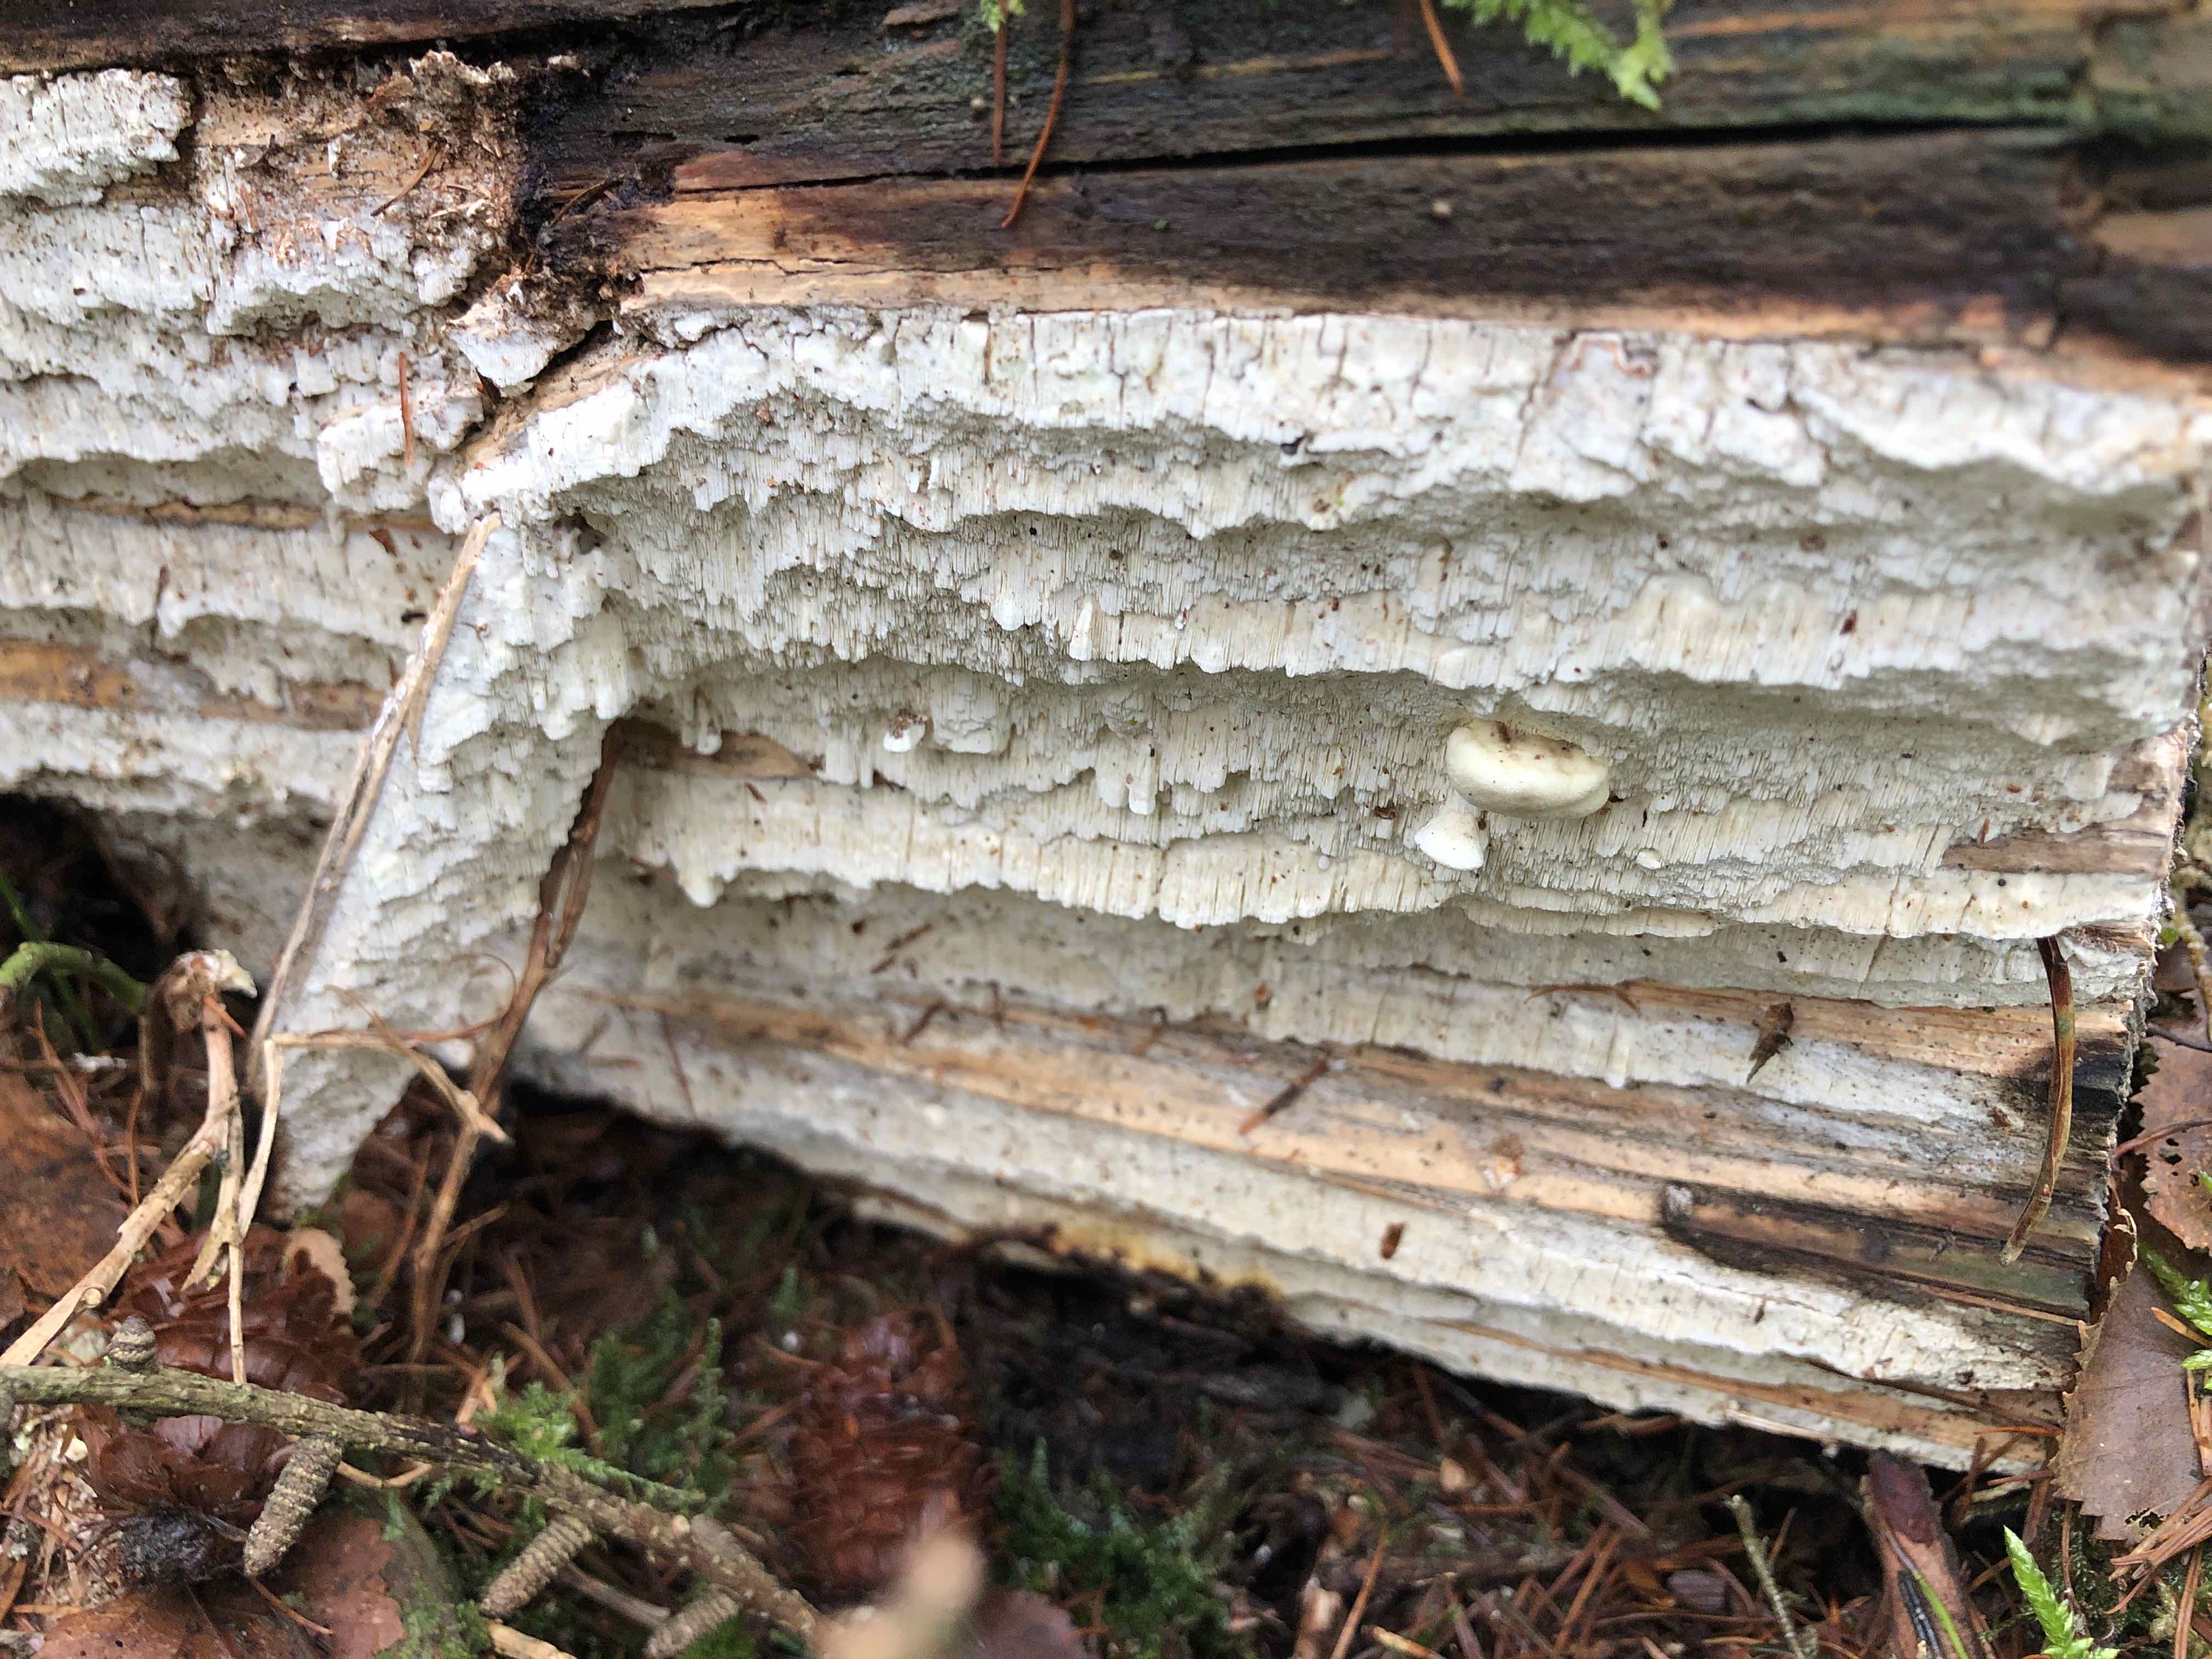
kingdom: Fungi
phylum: Basidiomycota
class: Agaricomycetes
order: Polyporales
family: Fomitopsidaceae
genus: Daedalea
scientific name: Daedalea xantha
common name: gul sejporesvamp
